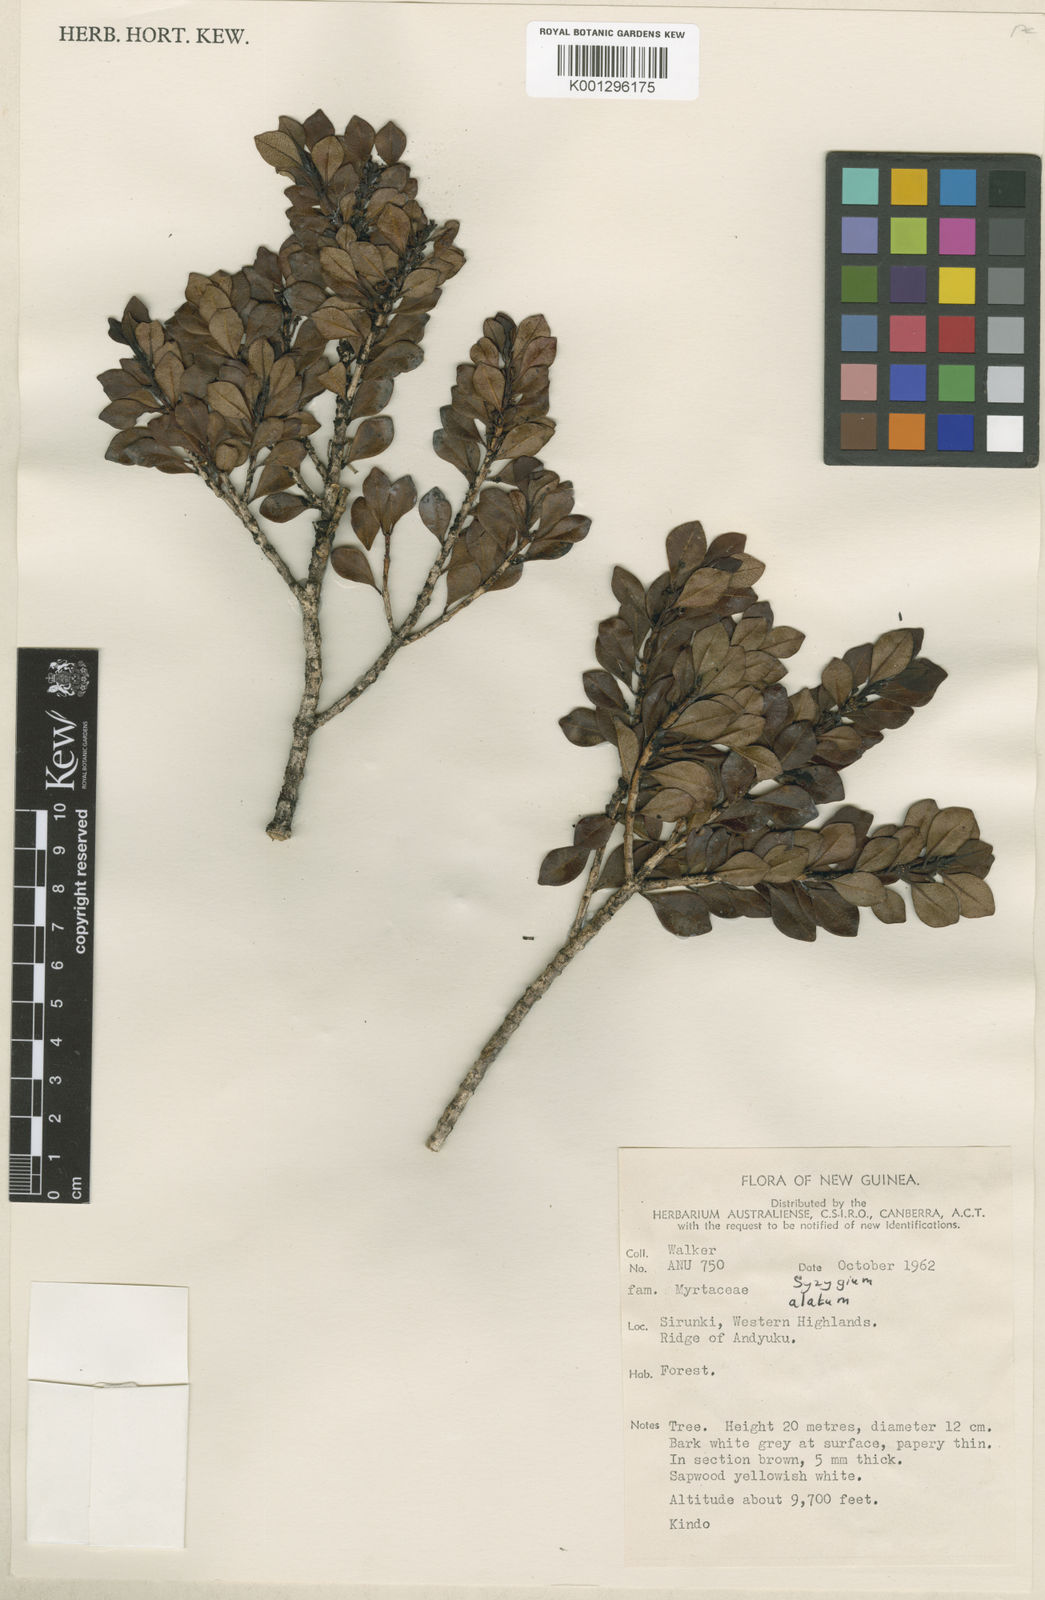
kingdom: Plantae
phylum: Tracheophyta
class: Magnoliopsida
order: Myrtales
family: Myrtaceae
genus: Syzygium
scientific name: Syzygium alatum
